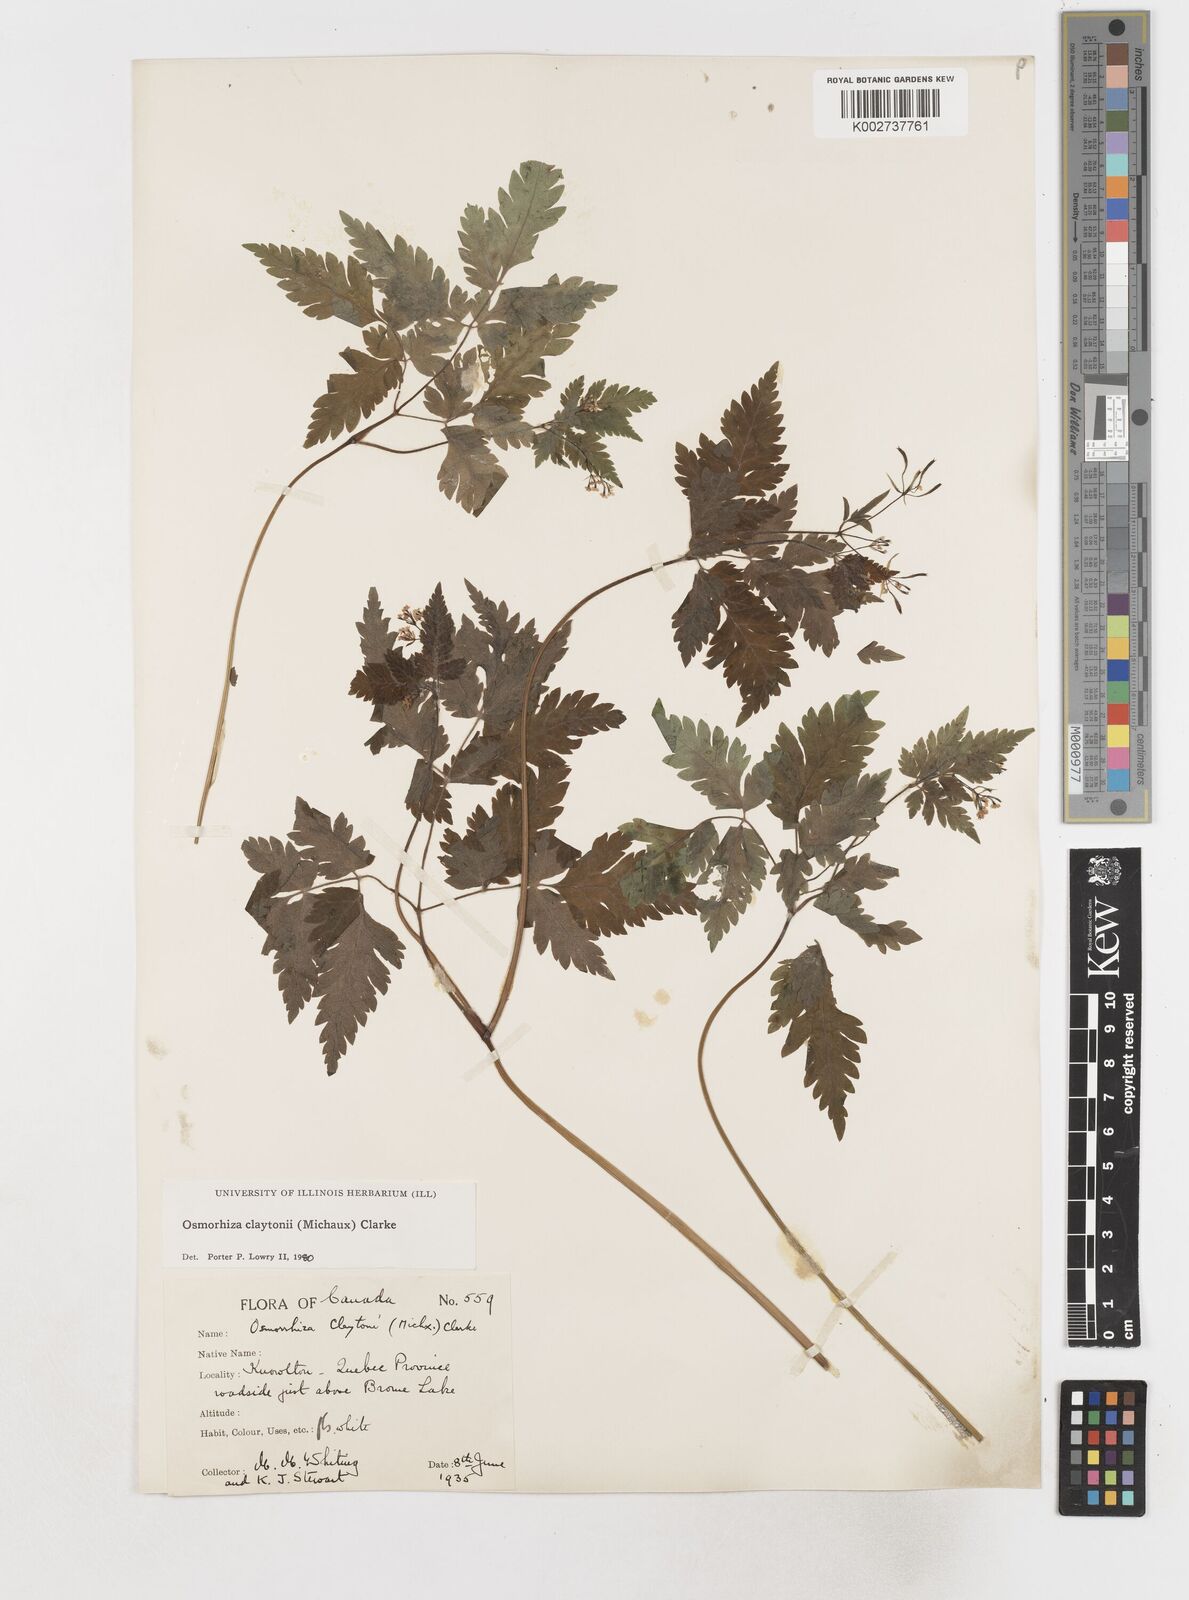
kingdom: Plantae
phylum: Tracheophyta
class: Magnoliopsida
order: Apiales
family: Apiaceae
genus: Osmorhiza
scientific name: Osmorhiza claytonii
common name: Hairy sweet cicely
